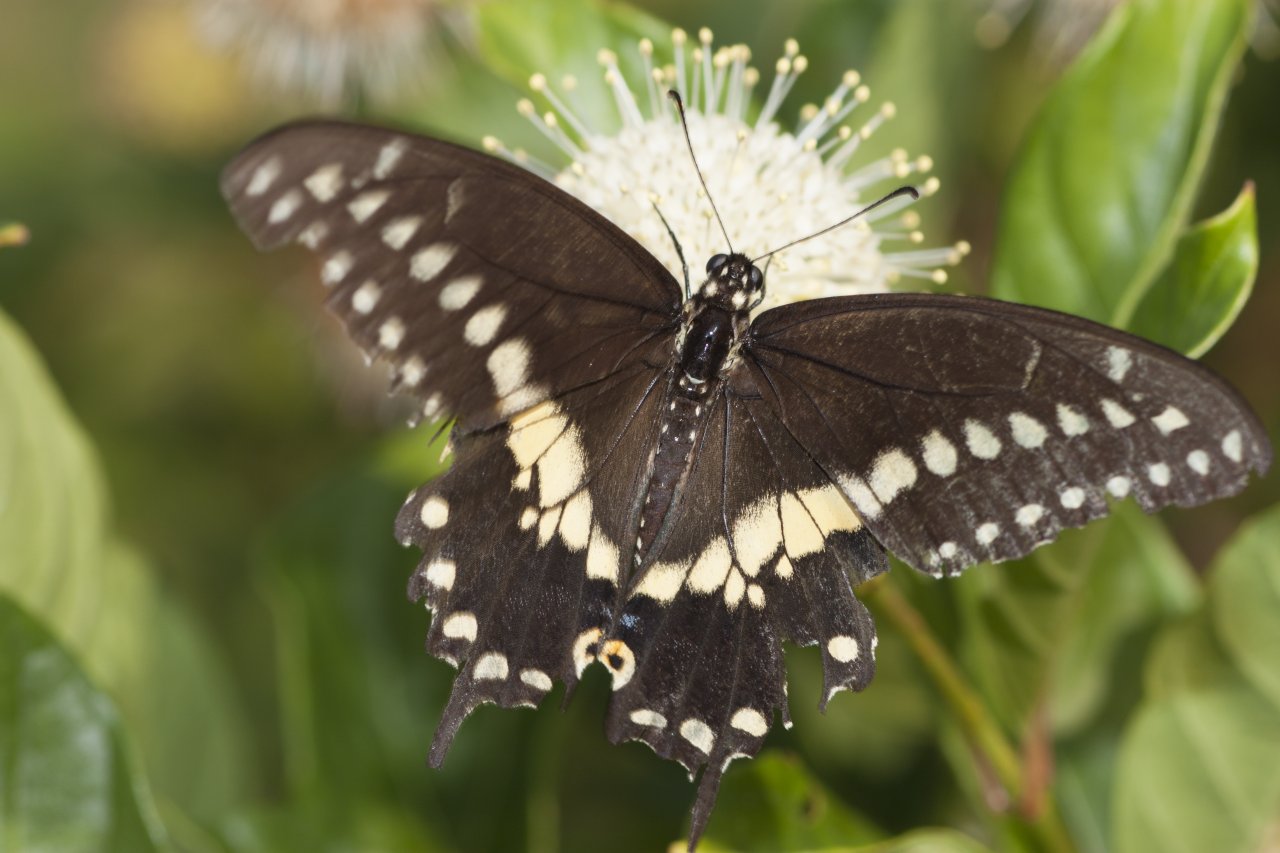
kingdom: Animalia
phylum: Arthropoda
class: Insecta
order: Lepidoptera
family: Papilionidae
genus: Papilio
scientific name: Papilio polyxenes
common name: Black Swallowtail
